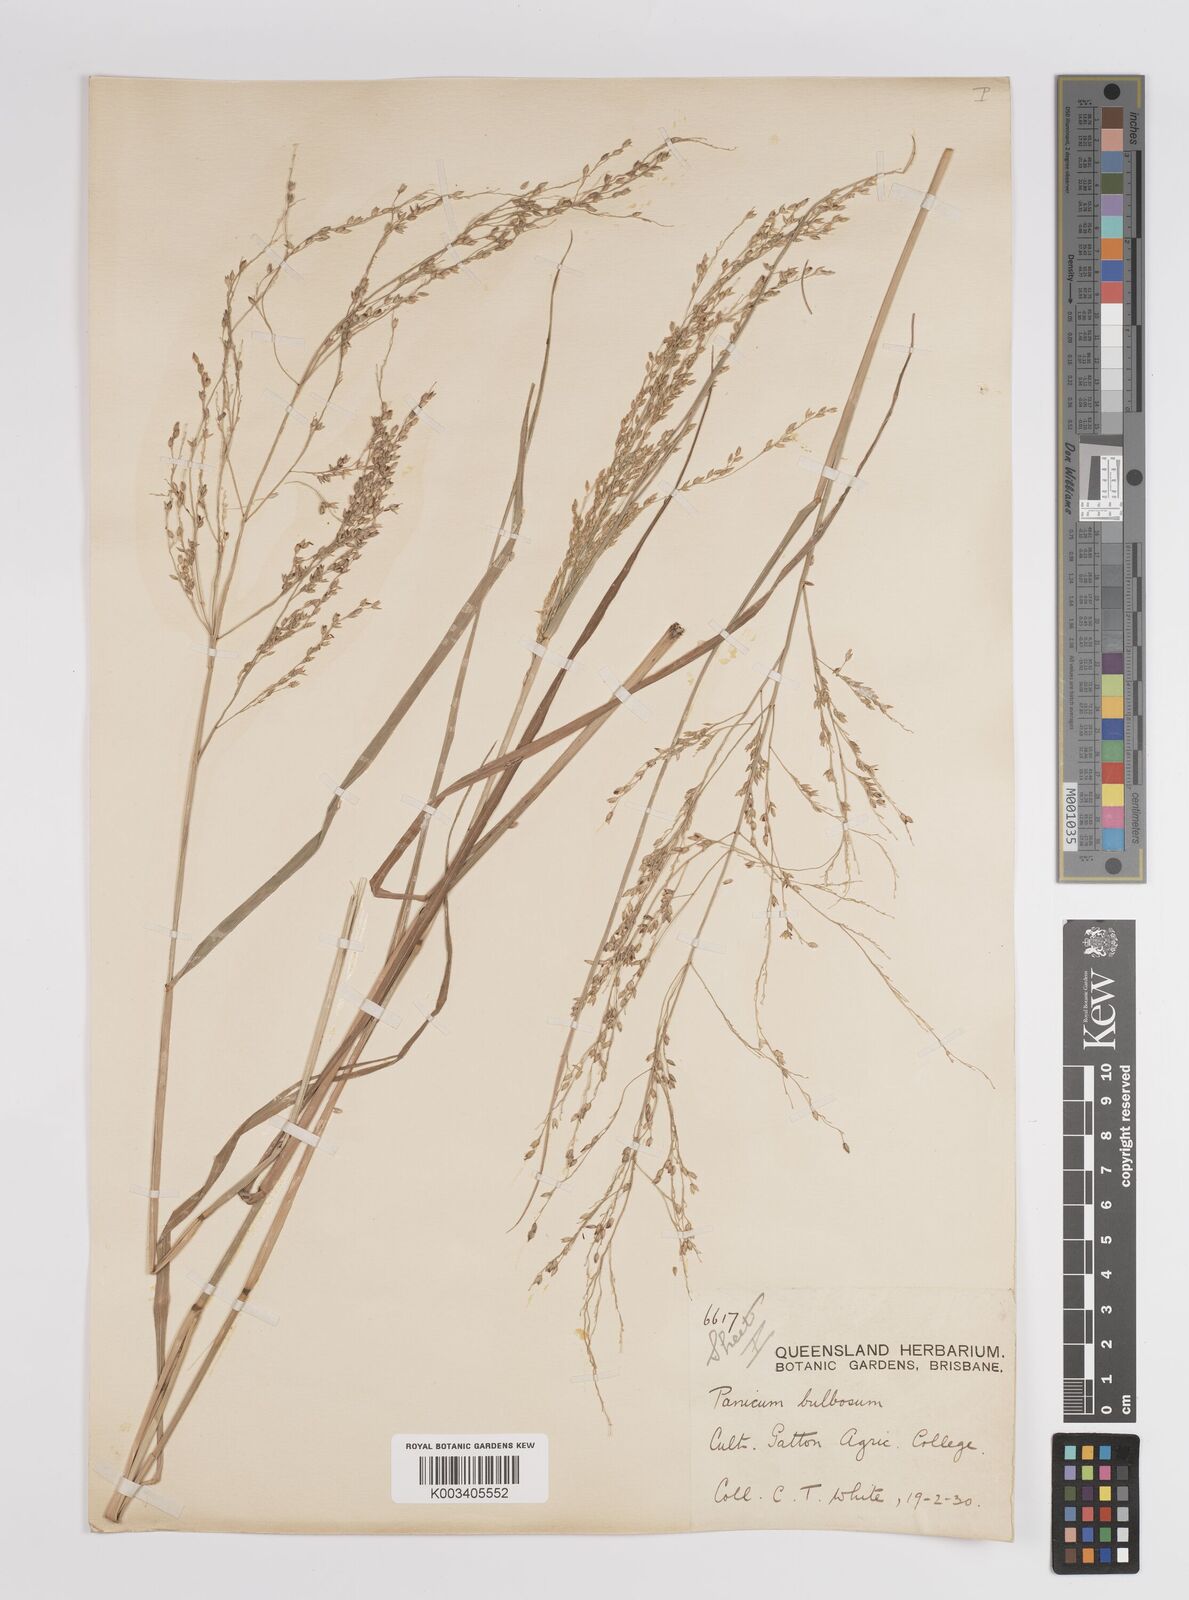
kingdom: Plantae
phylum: Tracheophyta
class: Liliopsida
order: Poales
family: Poaceae
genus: Panicum
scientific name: Panicum
